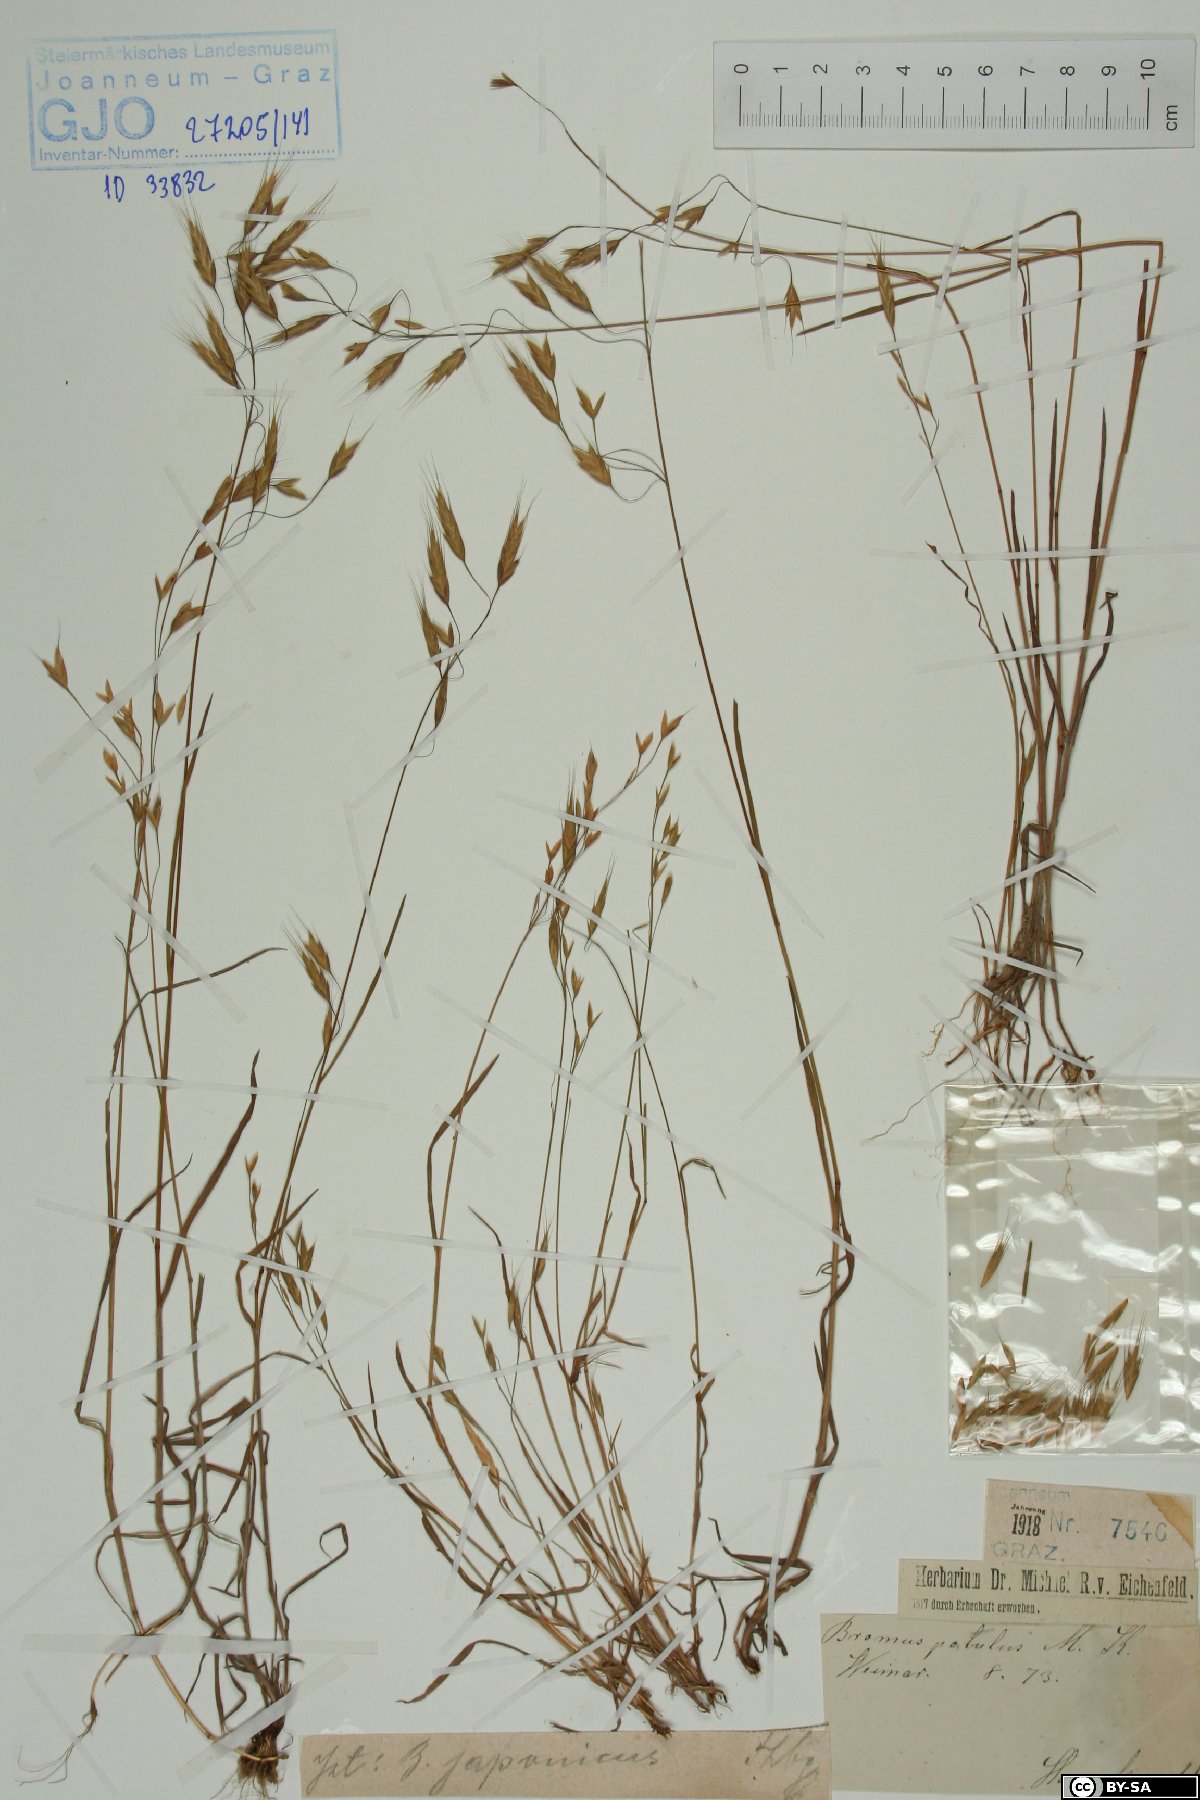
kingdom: Plantae
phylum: Tracheophyta
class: Liliopsida
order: Poales
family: Poaceae
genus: Bromus
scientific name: Bromus japonicus
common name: Japanese brome
